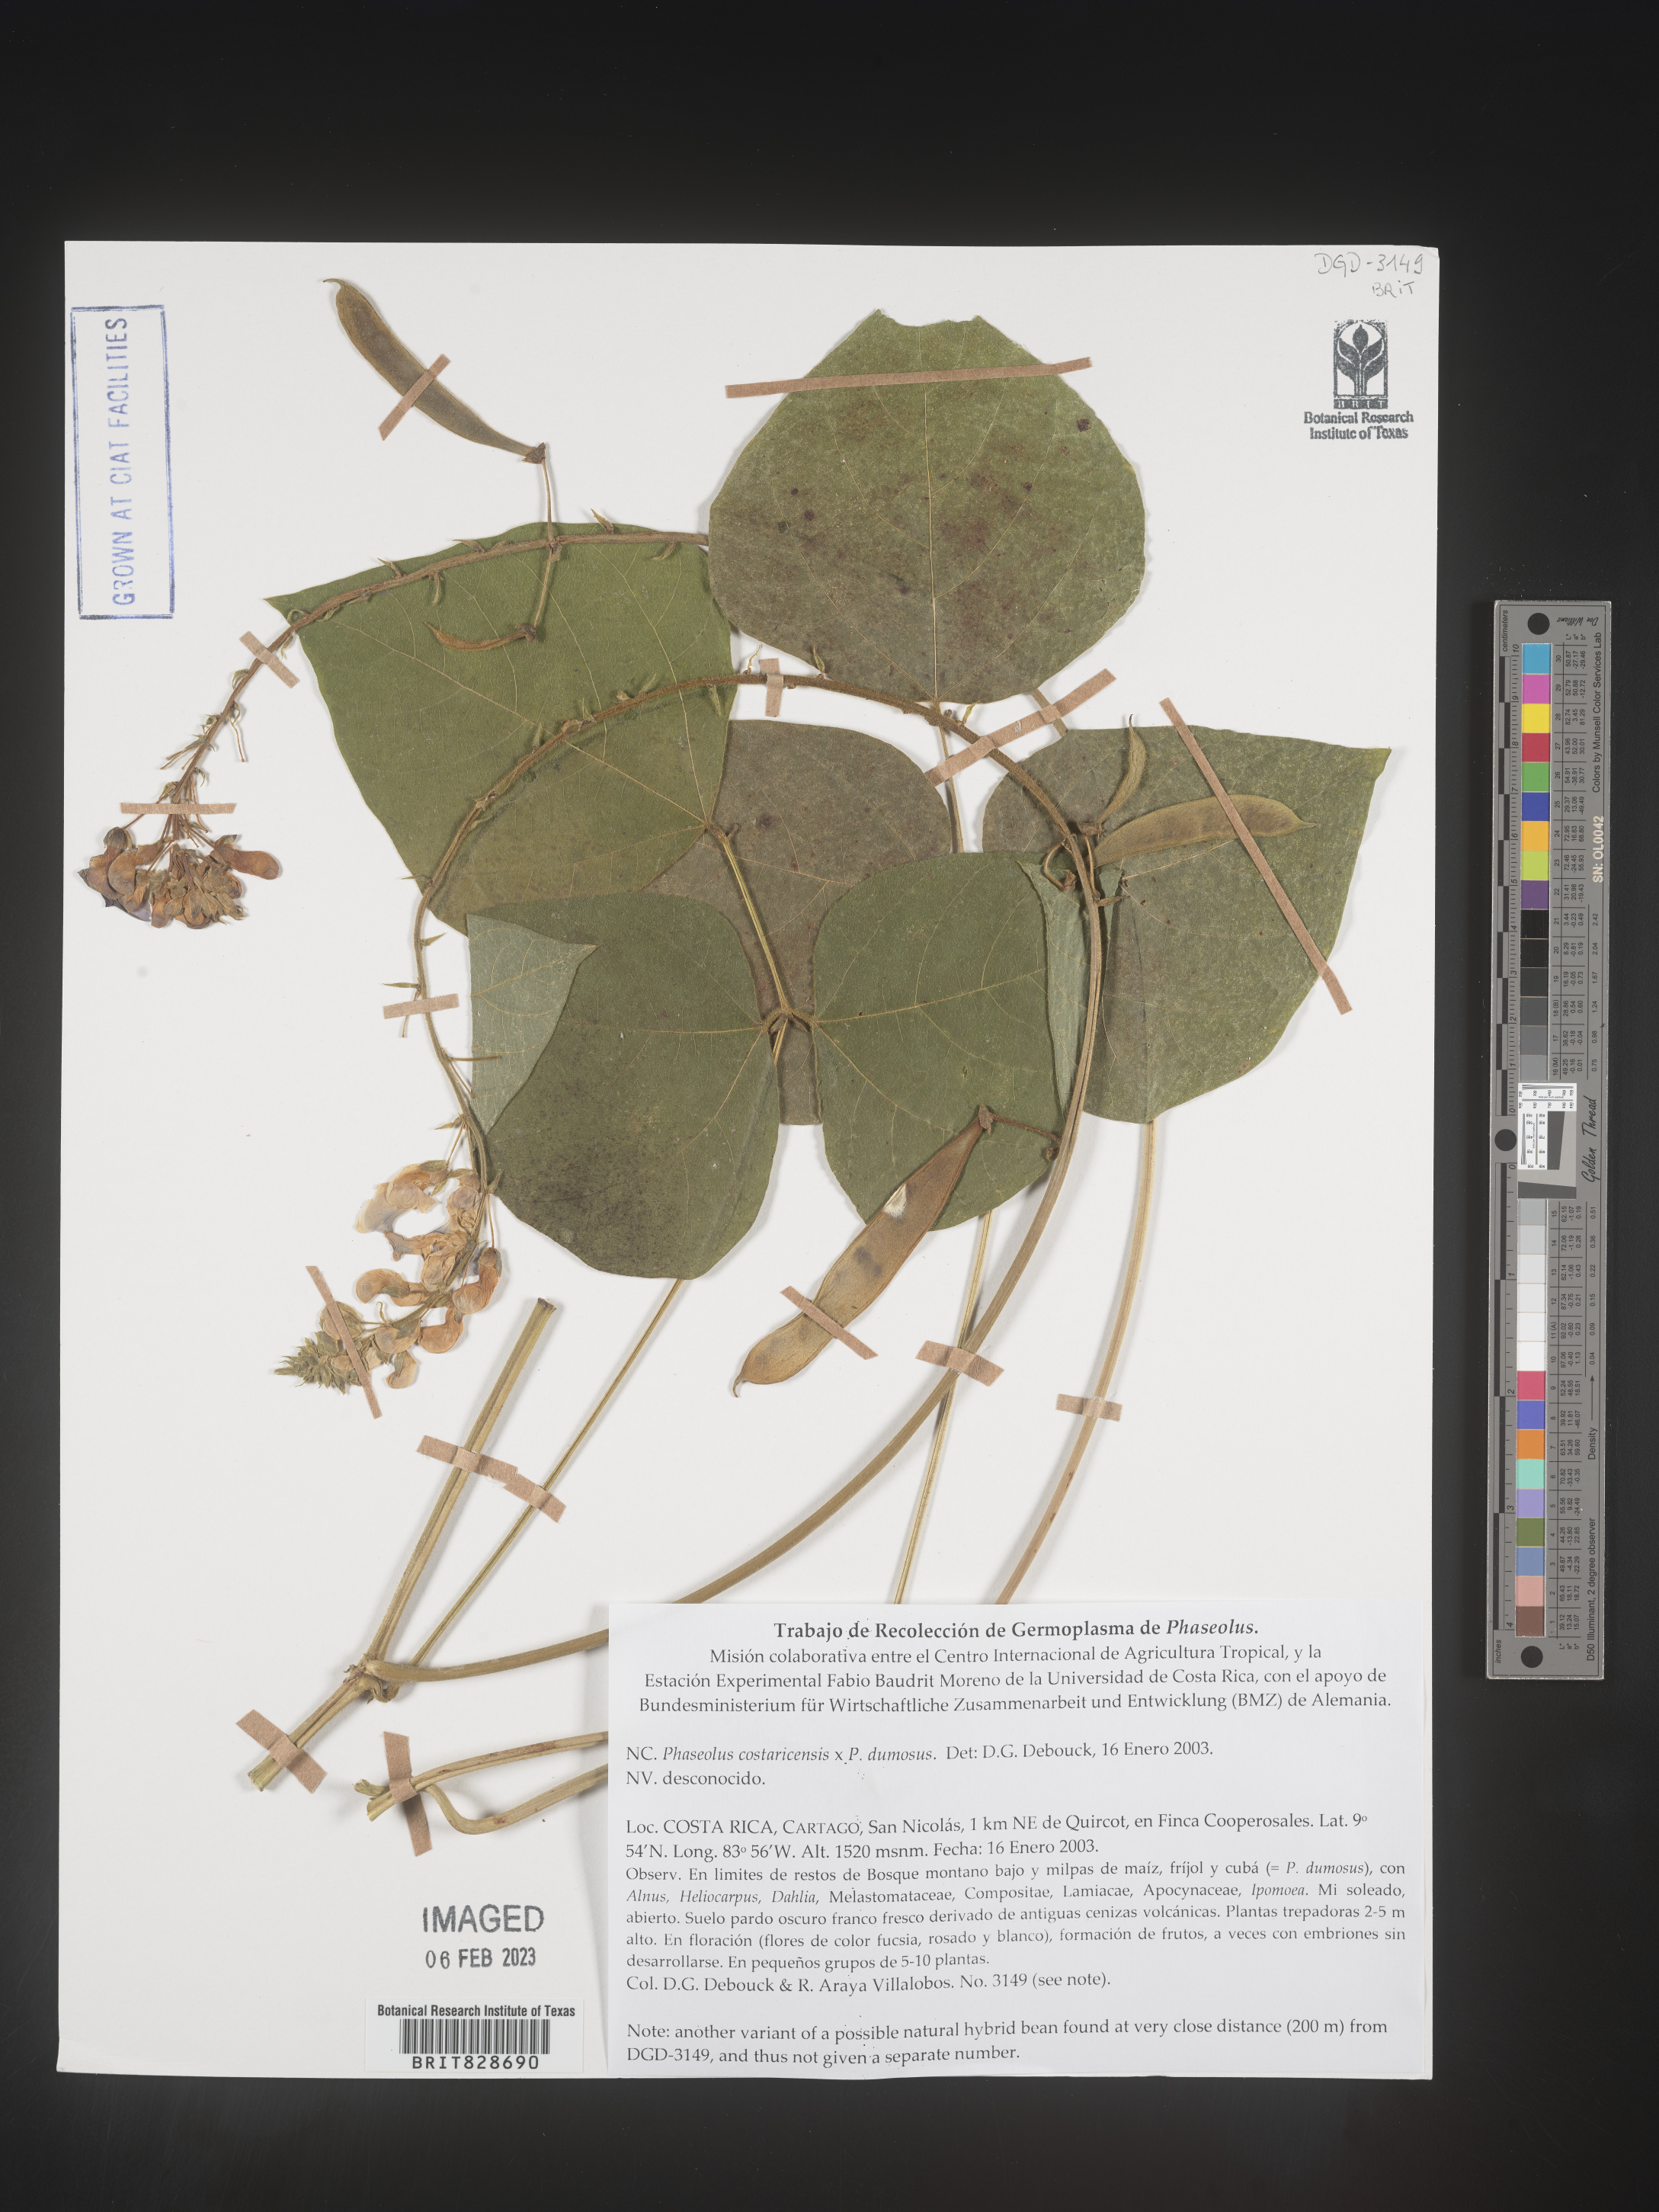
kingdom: Plantae
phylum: Tracheophyta
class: Magnoliopsida
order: Fabales
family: Fabaceae
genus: Phaseolus
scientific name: Phaseolus
